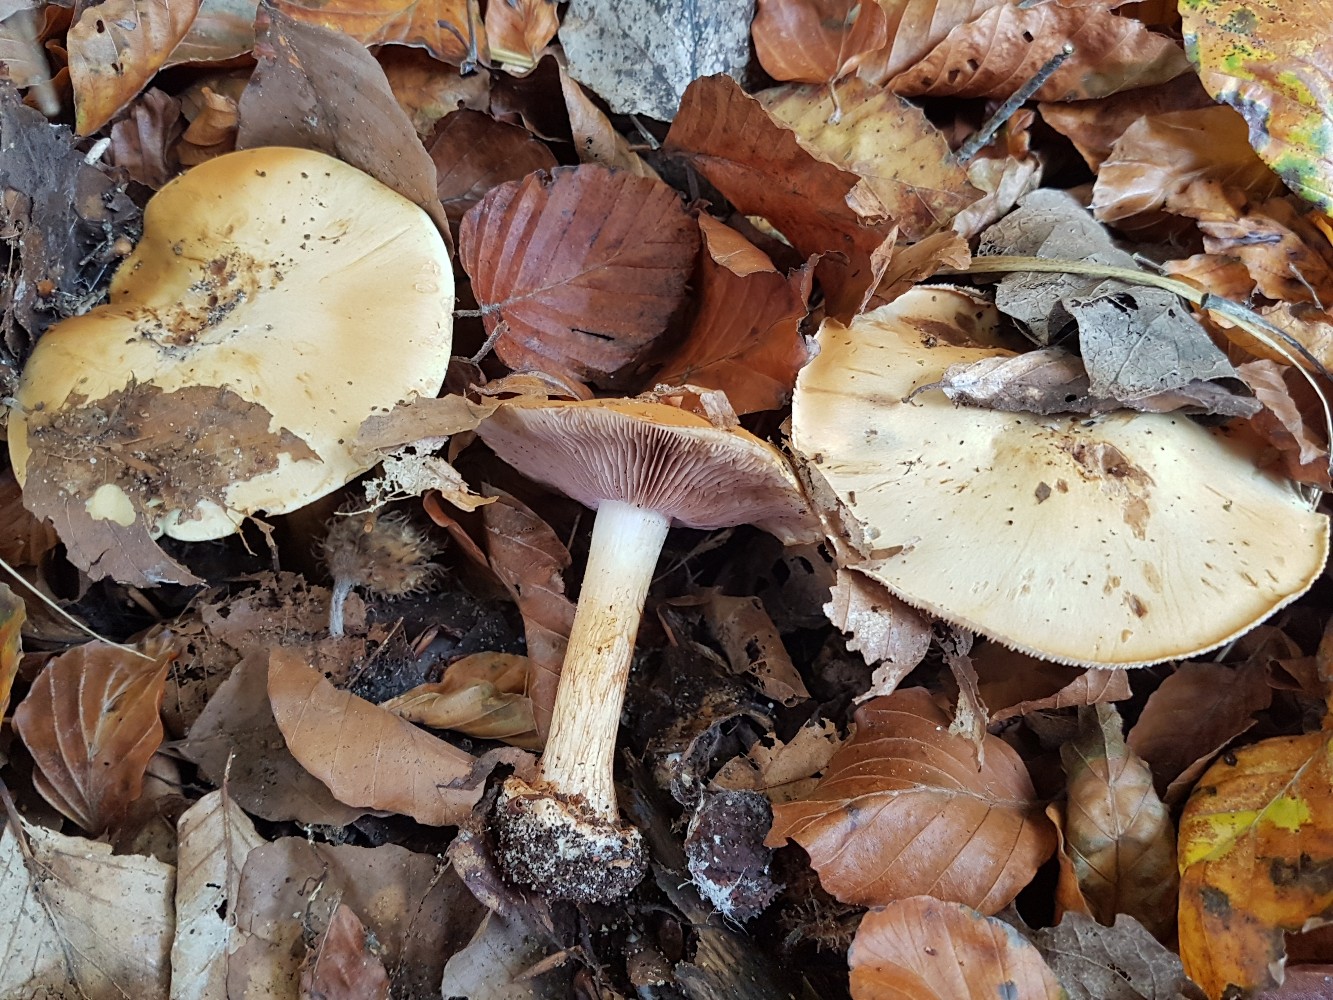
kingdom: Fungi
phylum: Basidiomycota
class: Agaricomycetes
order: Agaricales
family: Cortinariaceae
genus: Calonarius
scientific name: Calonarius platypus
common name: platfodet slørhat
